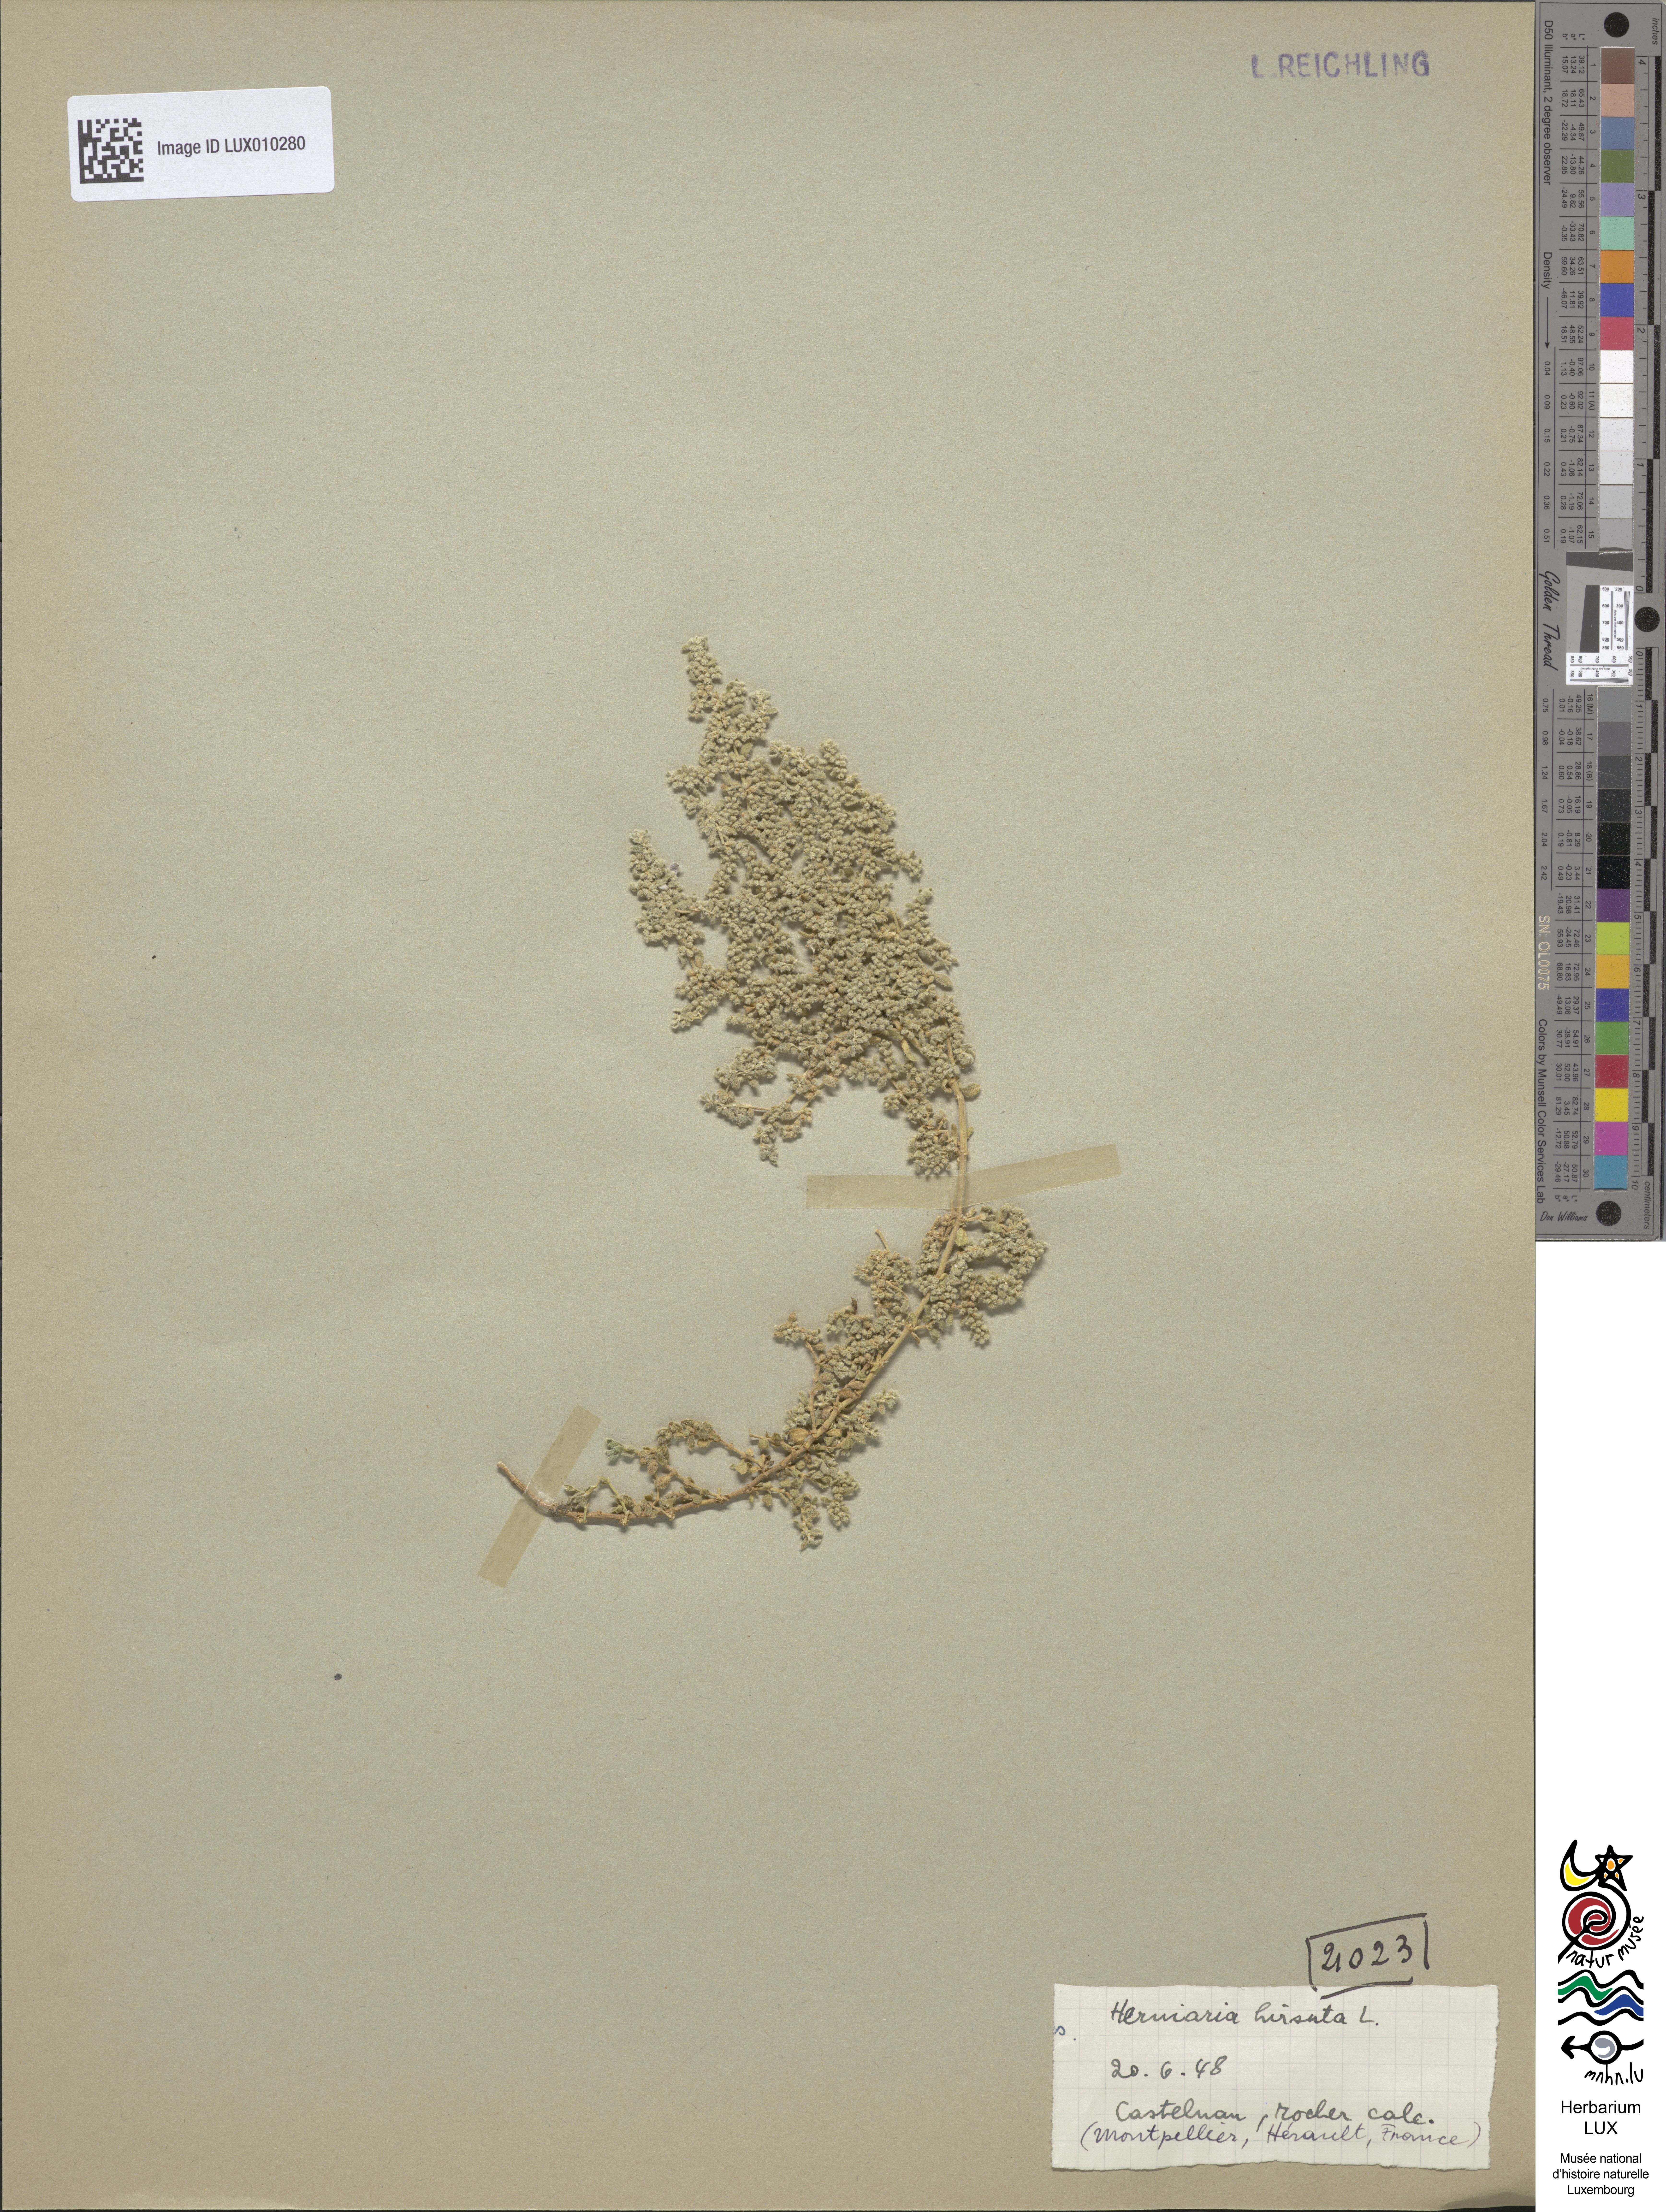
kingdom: Plantae
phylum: Tracheophyta
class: Magnoliopsida
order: Caryophyllales
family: Caryophyllaceae
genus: Herniaria
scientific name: Herniaria hirsuta
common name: Hairy rupturewort
